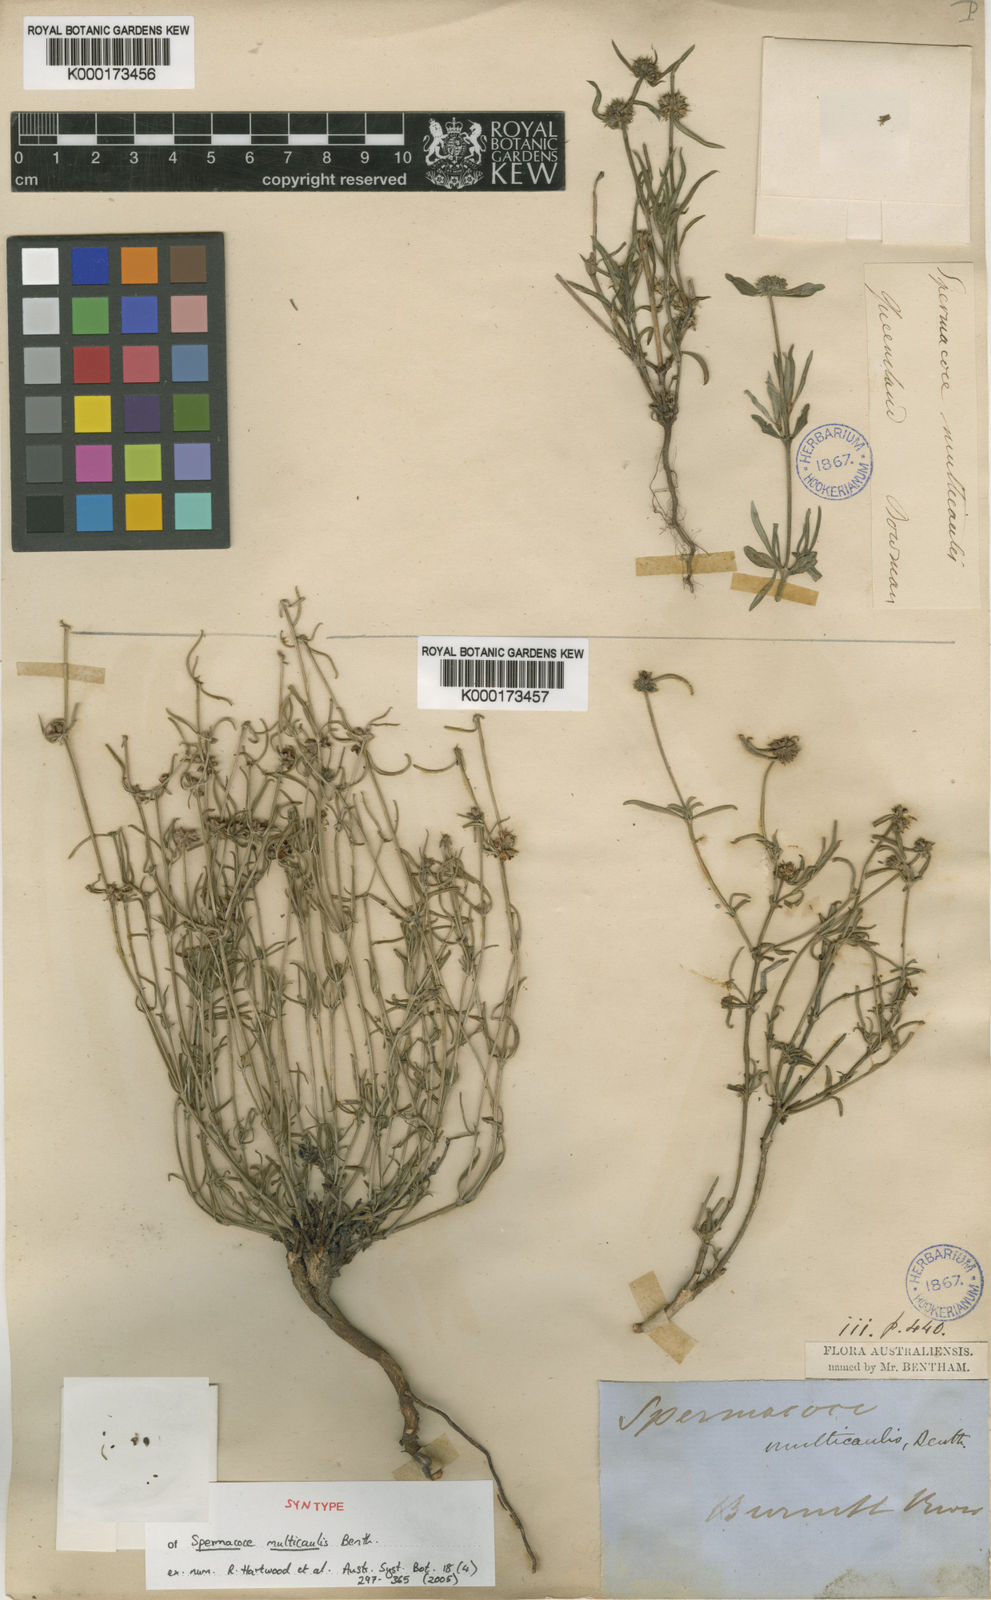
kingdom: Plantae
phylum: Tracheophyta
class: Magnoliopsida
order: Gentianales
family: Rubiaceae
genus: Spermacoce
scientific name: Spermacoce multicaulis
